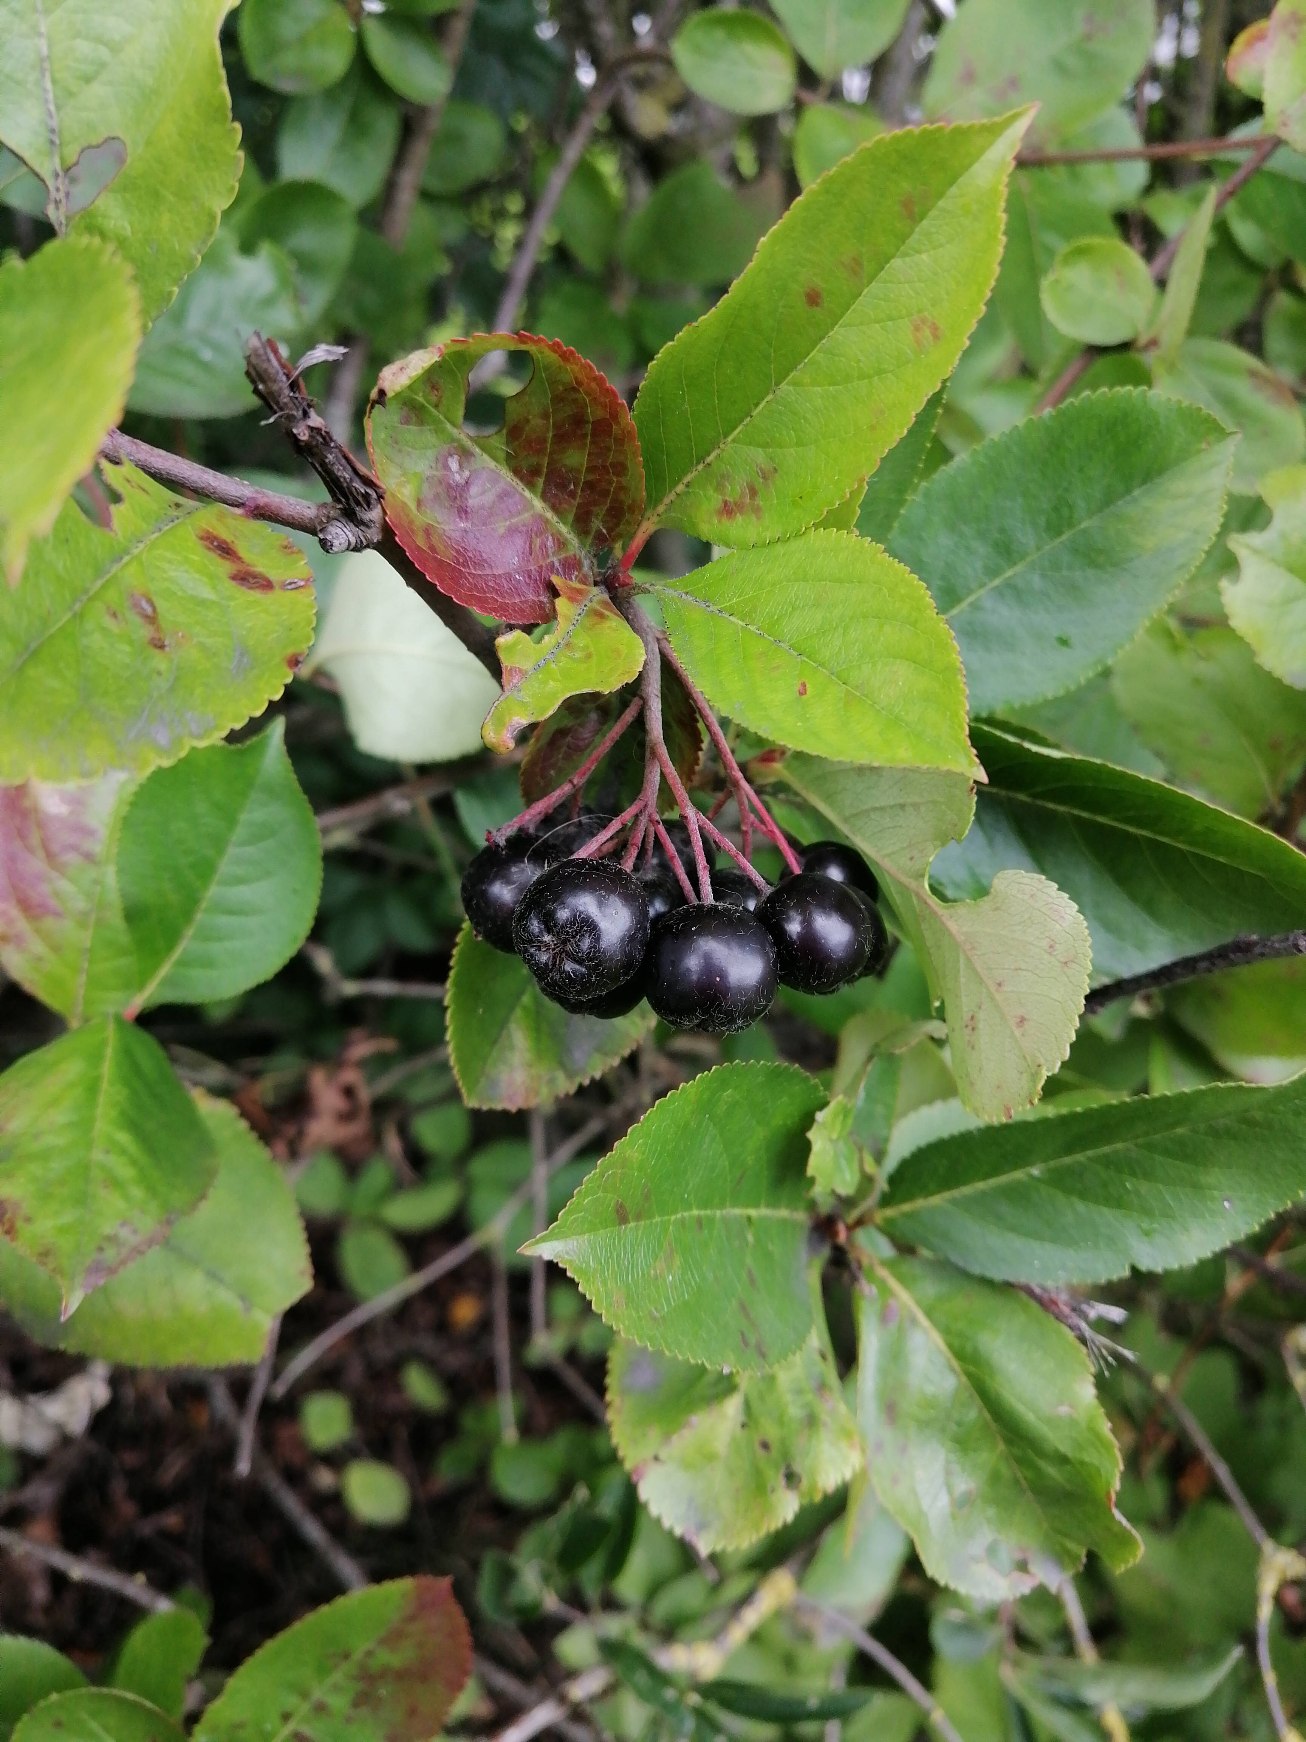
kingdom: Plantae
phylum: Tracheophyta
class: Magnoliopsida
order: Rosales
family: Rosaceae
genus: Aronia
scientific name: Aronia melanocarpa
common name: Sortfrugtet surbær
